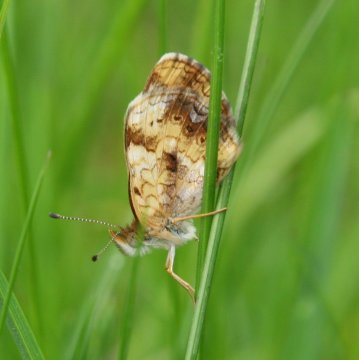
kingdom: Animalia
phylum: Arthropoda
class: Insecta
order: Lepidoptera
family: Nymphalidae
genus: Phyciodes
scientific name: Phyciodes tharos
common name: Pearl Crescent
